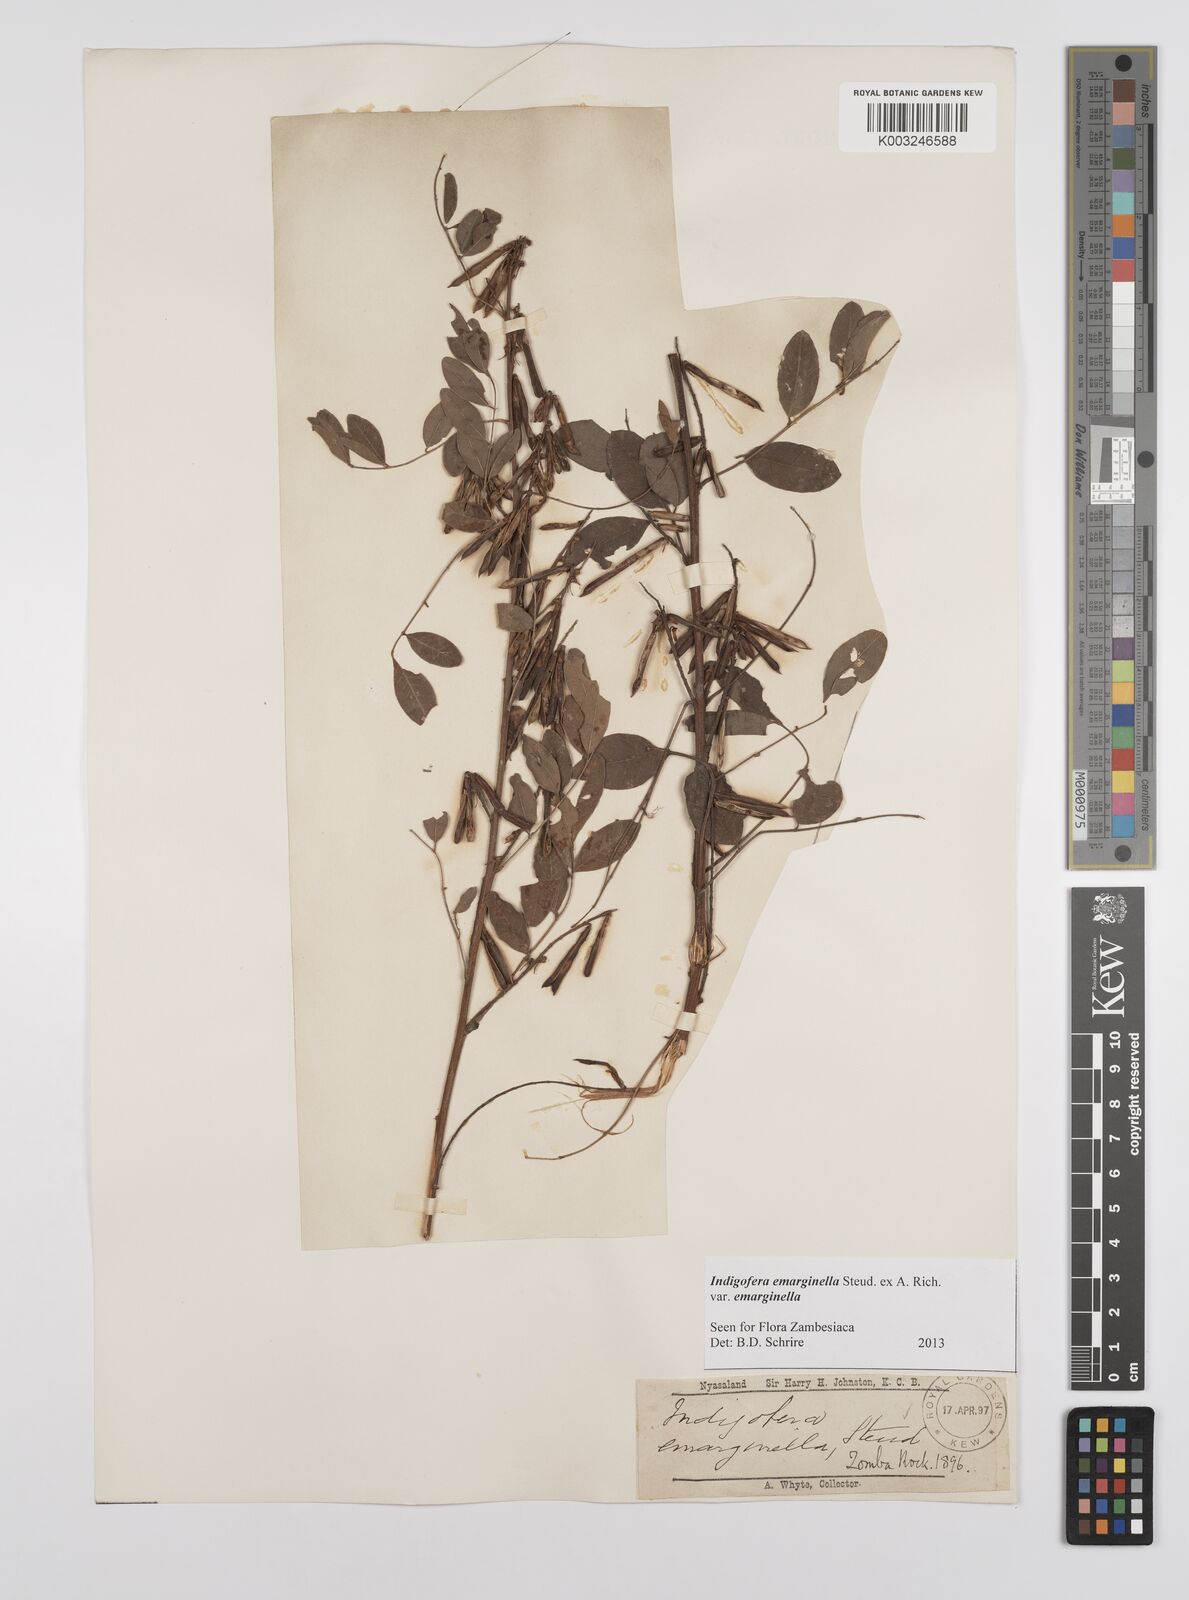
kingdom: Plantae
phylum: Tracheophyta
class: Magnoliopsida
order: Fabales
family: Fabaceae
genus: Indigofera
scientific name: Indigofera emarginella
